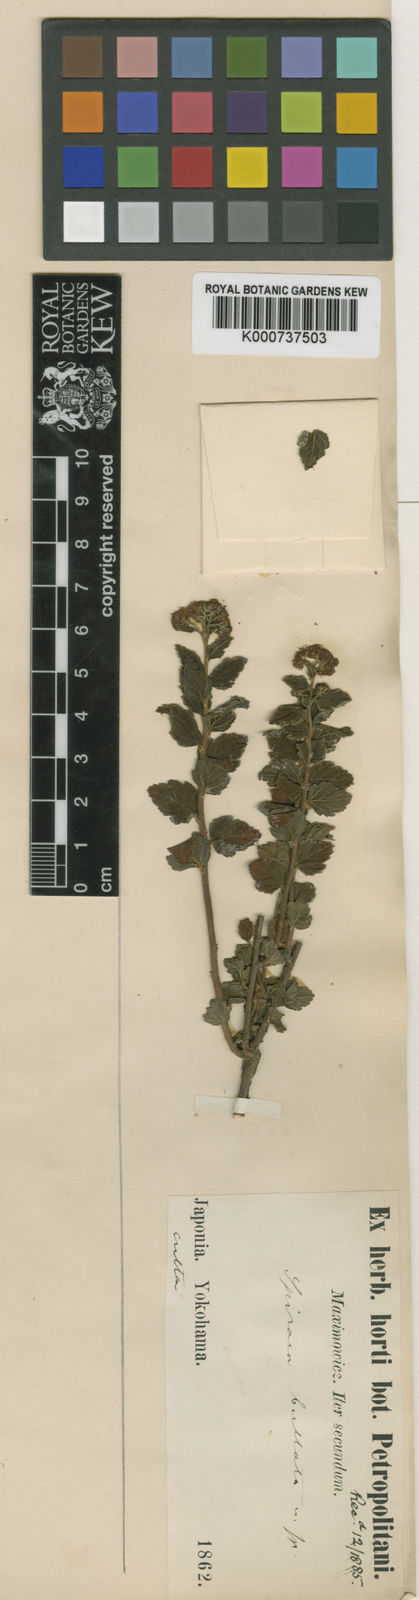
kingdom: Plantae
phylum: Tracheophyta
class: Magnoliopsida
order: Rosales
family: Rosaceae
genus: Spiraea
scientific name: Spiraea japonica
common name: Japanese spiraea
